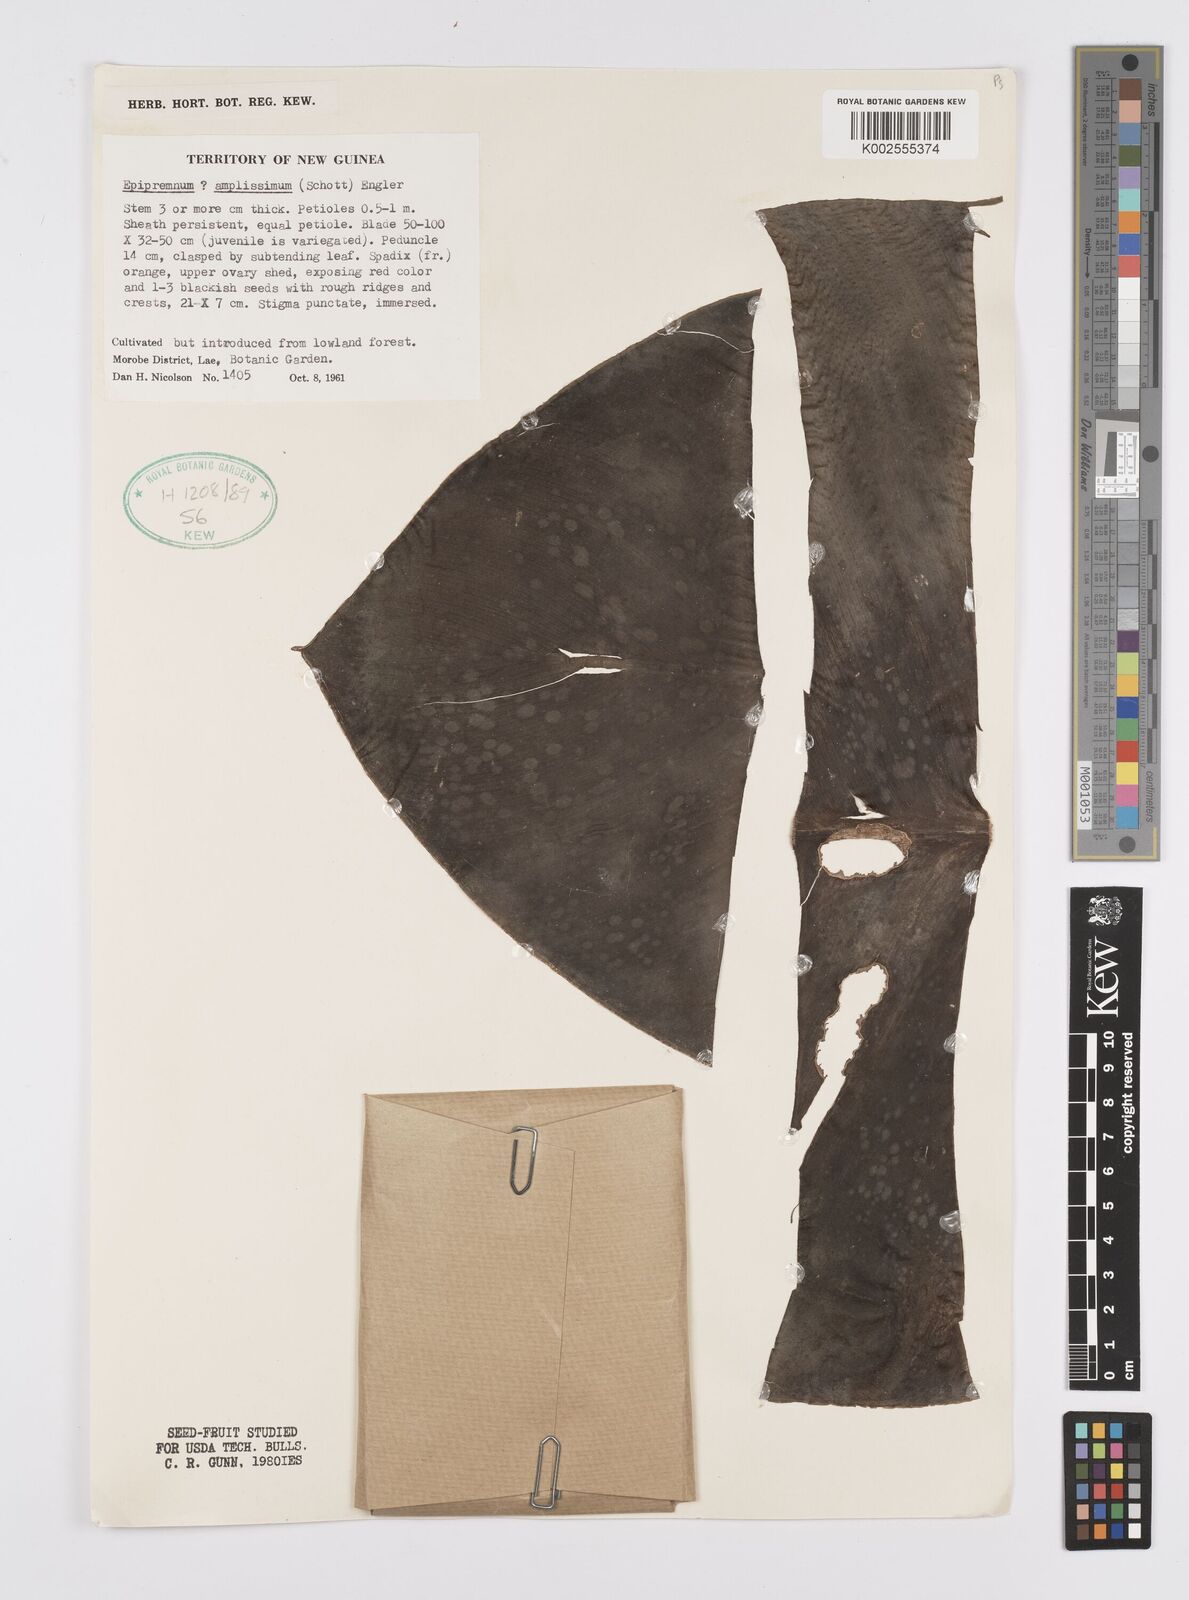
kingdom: Plantae
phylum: Tracheophyta
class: Liliopsida
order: Alismatales
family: Araceae
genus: Epipremnum
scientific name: Epipremnum amplissimum
